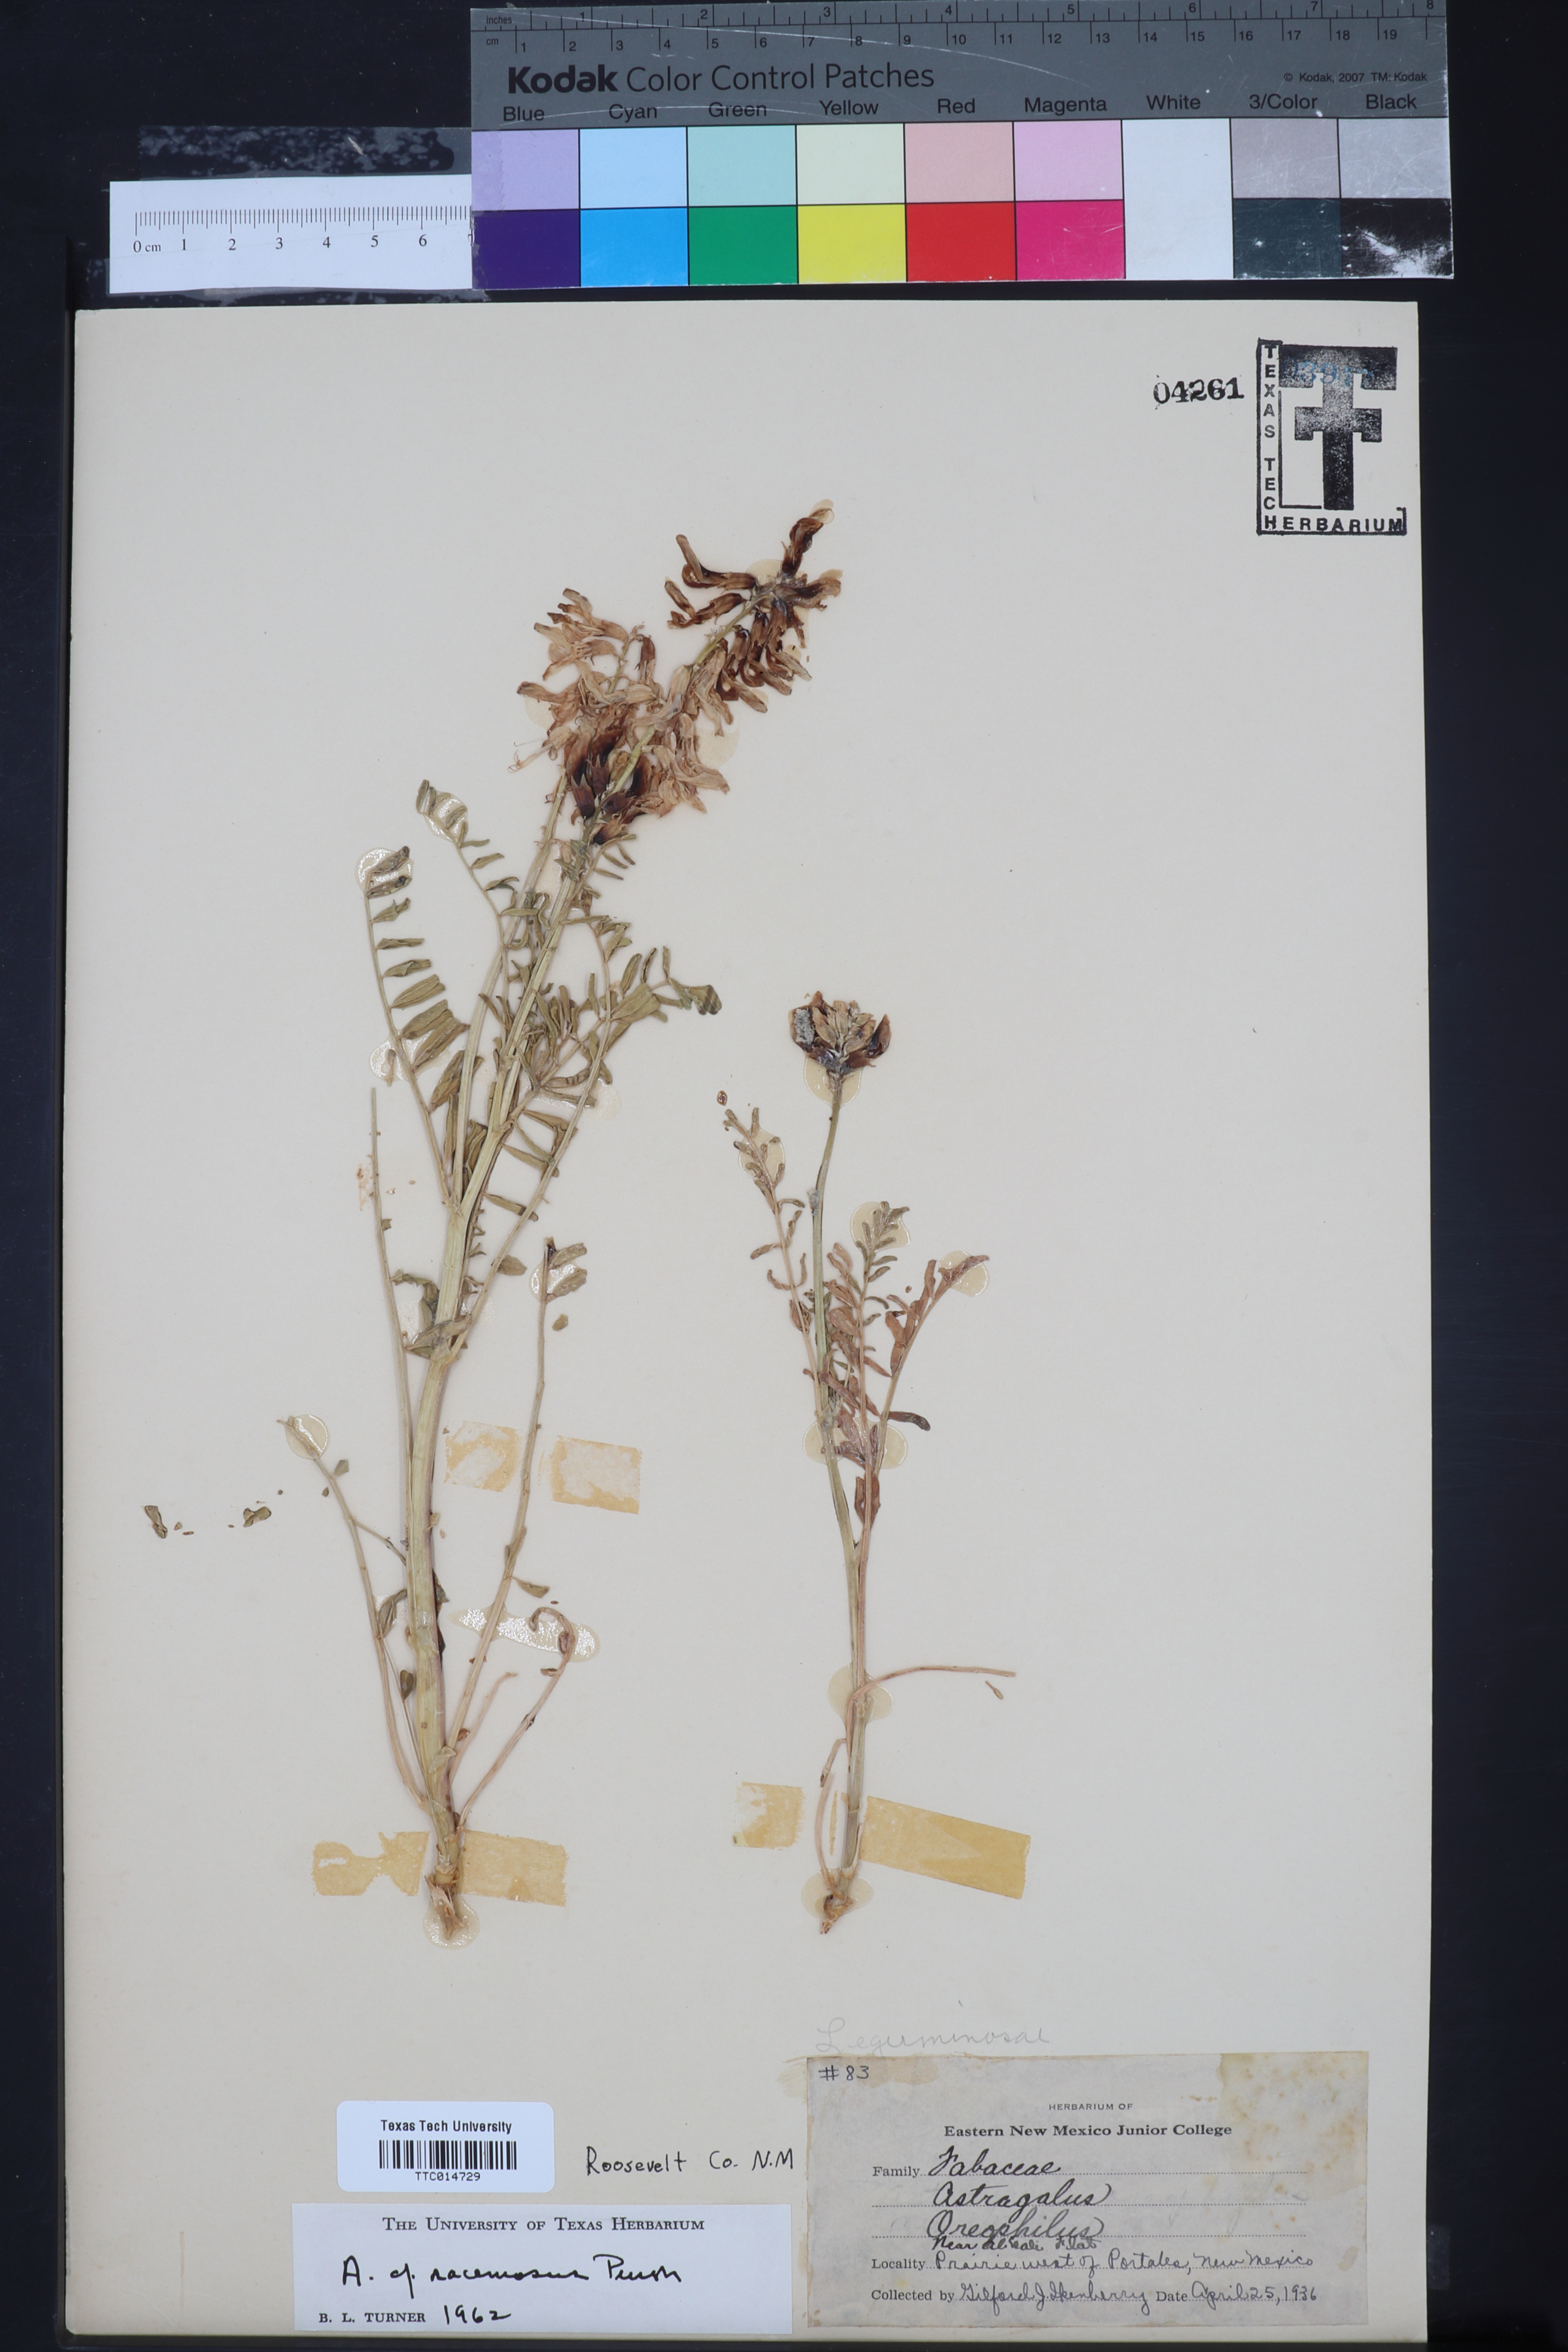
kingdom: Plantae
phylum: Tracheophyta
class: Magnoliopsida
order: Fabales
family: Fabaceae
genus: Astragalus
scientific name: Astragalus racemosus
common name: Alkali milk-vetch
